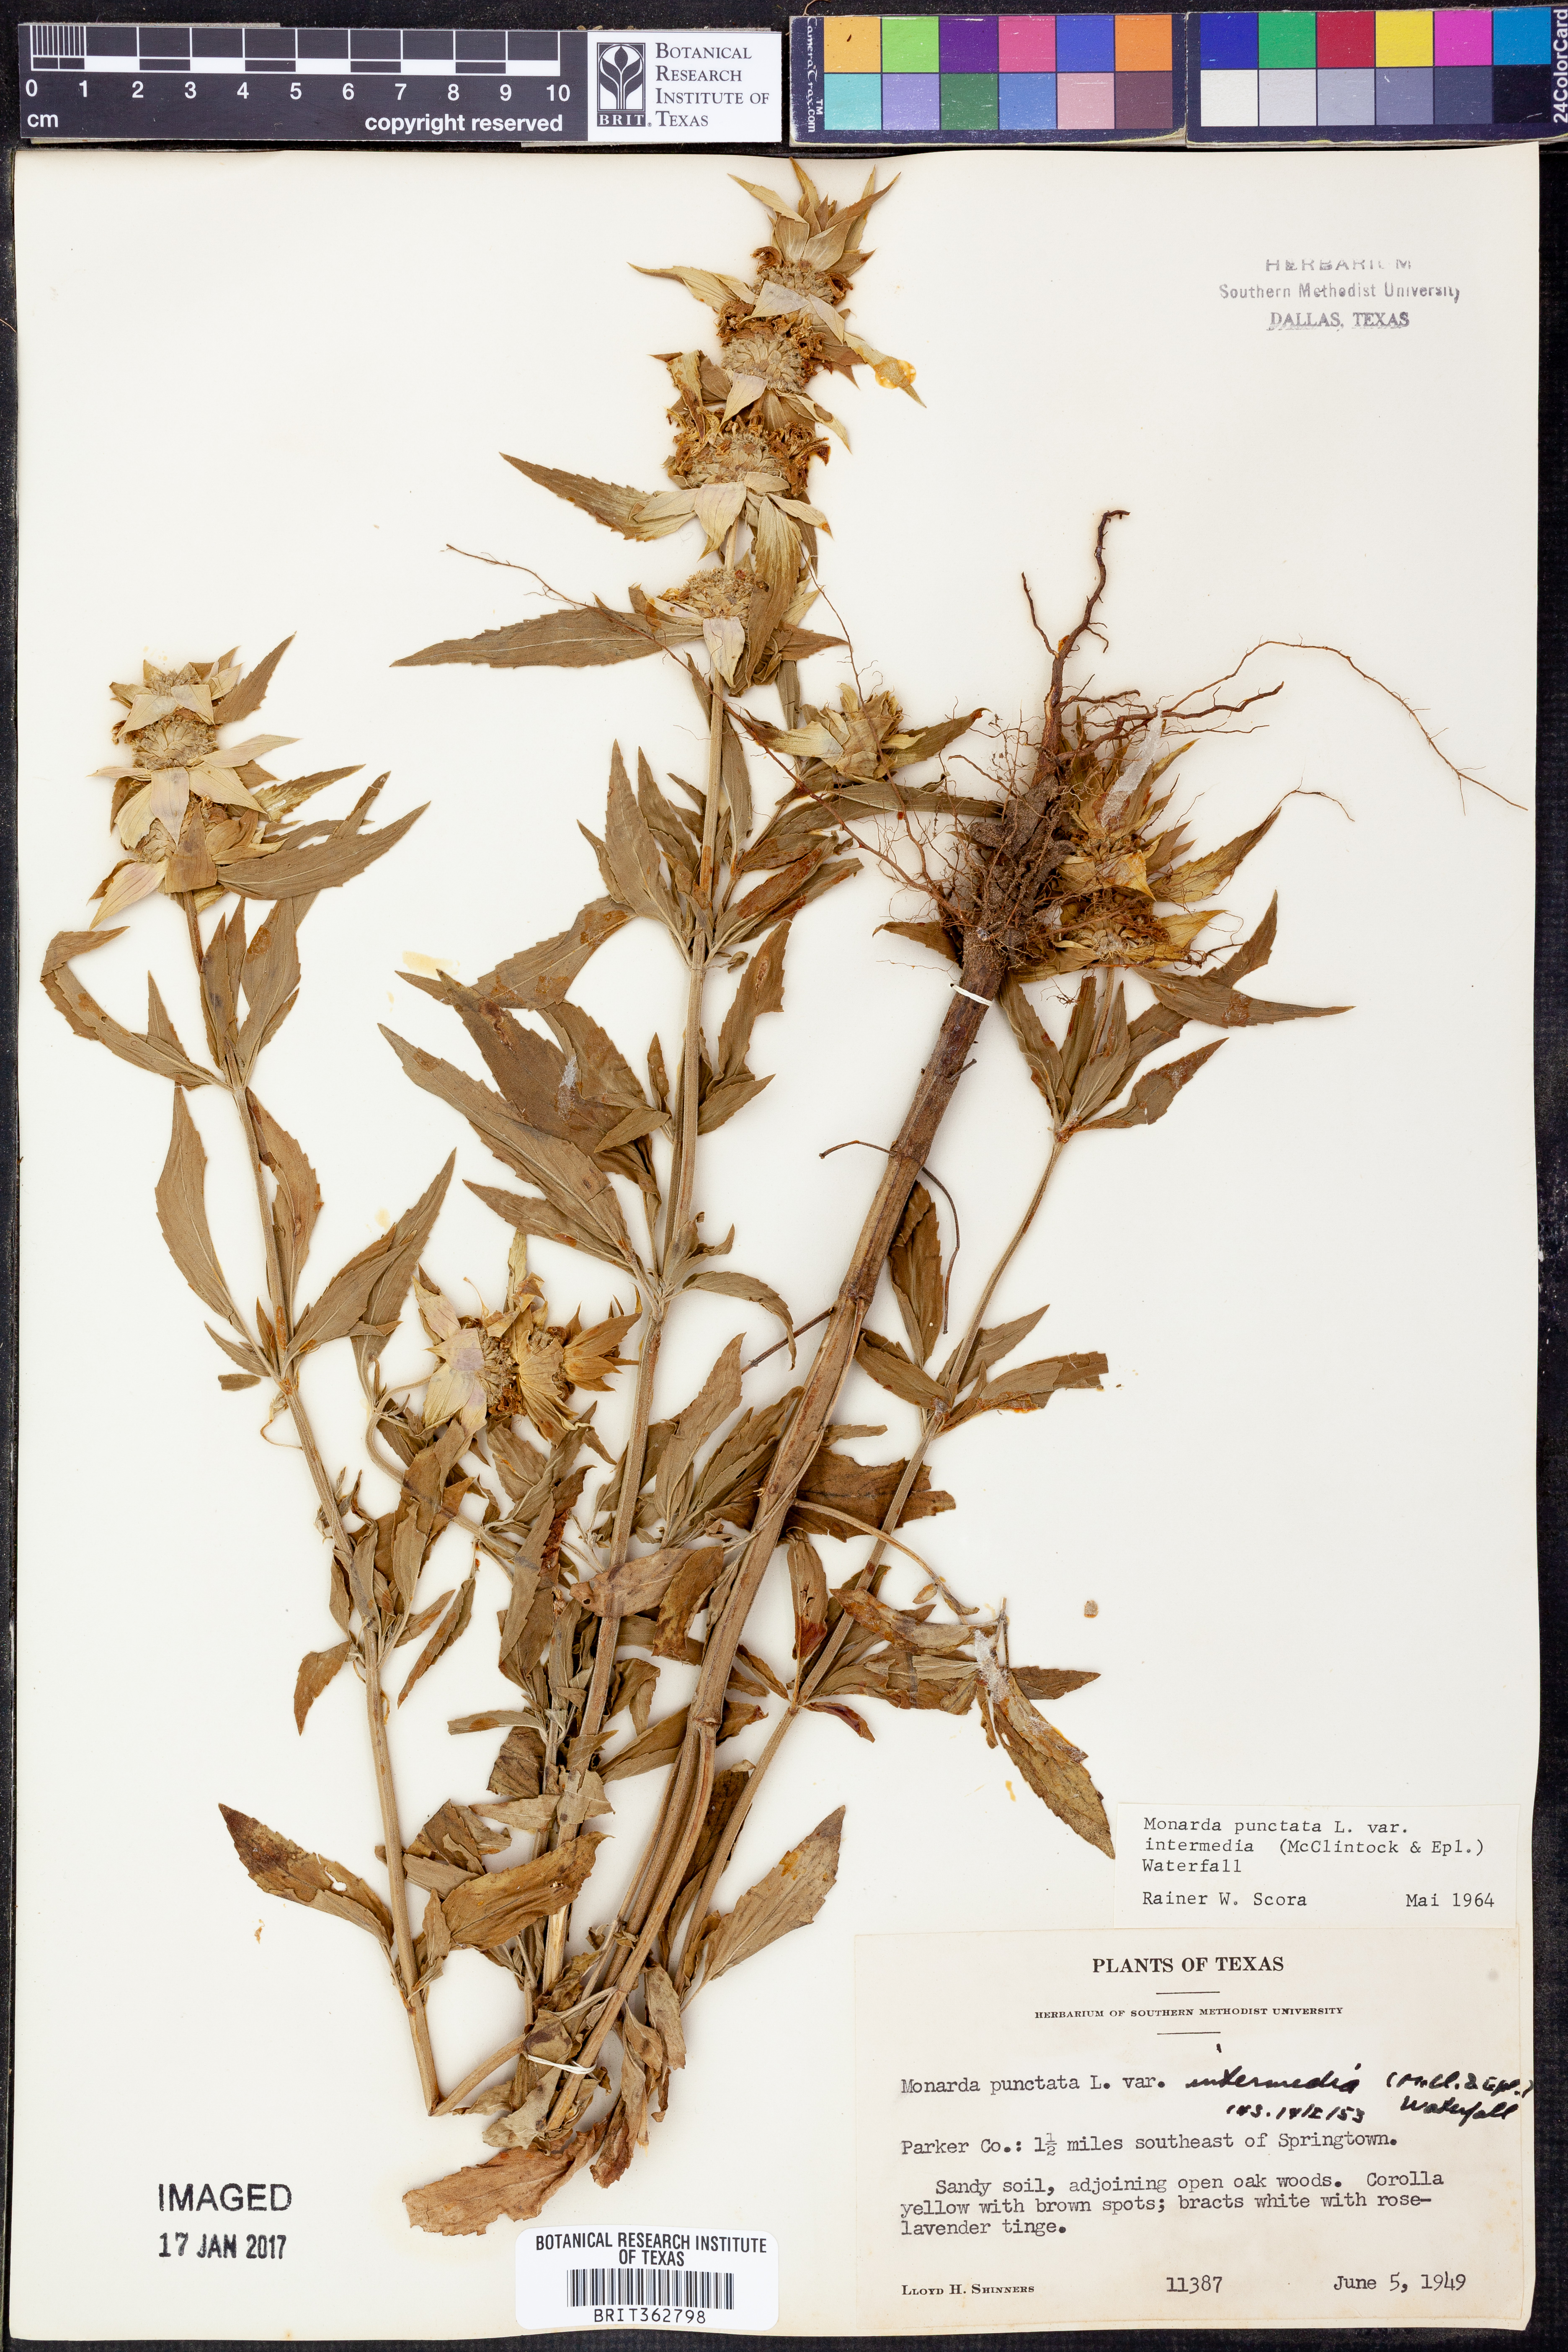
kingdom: Plantae
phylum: Tracheophyta
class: Magnoliopsida
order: Lamiales
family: Lamiaceae
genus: Monarda
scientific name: Monarda punctata
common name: Dotted monarda
